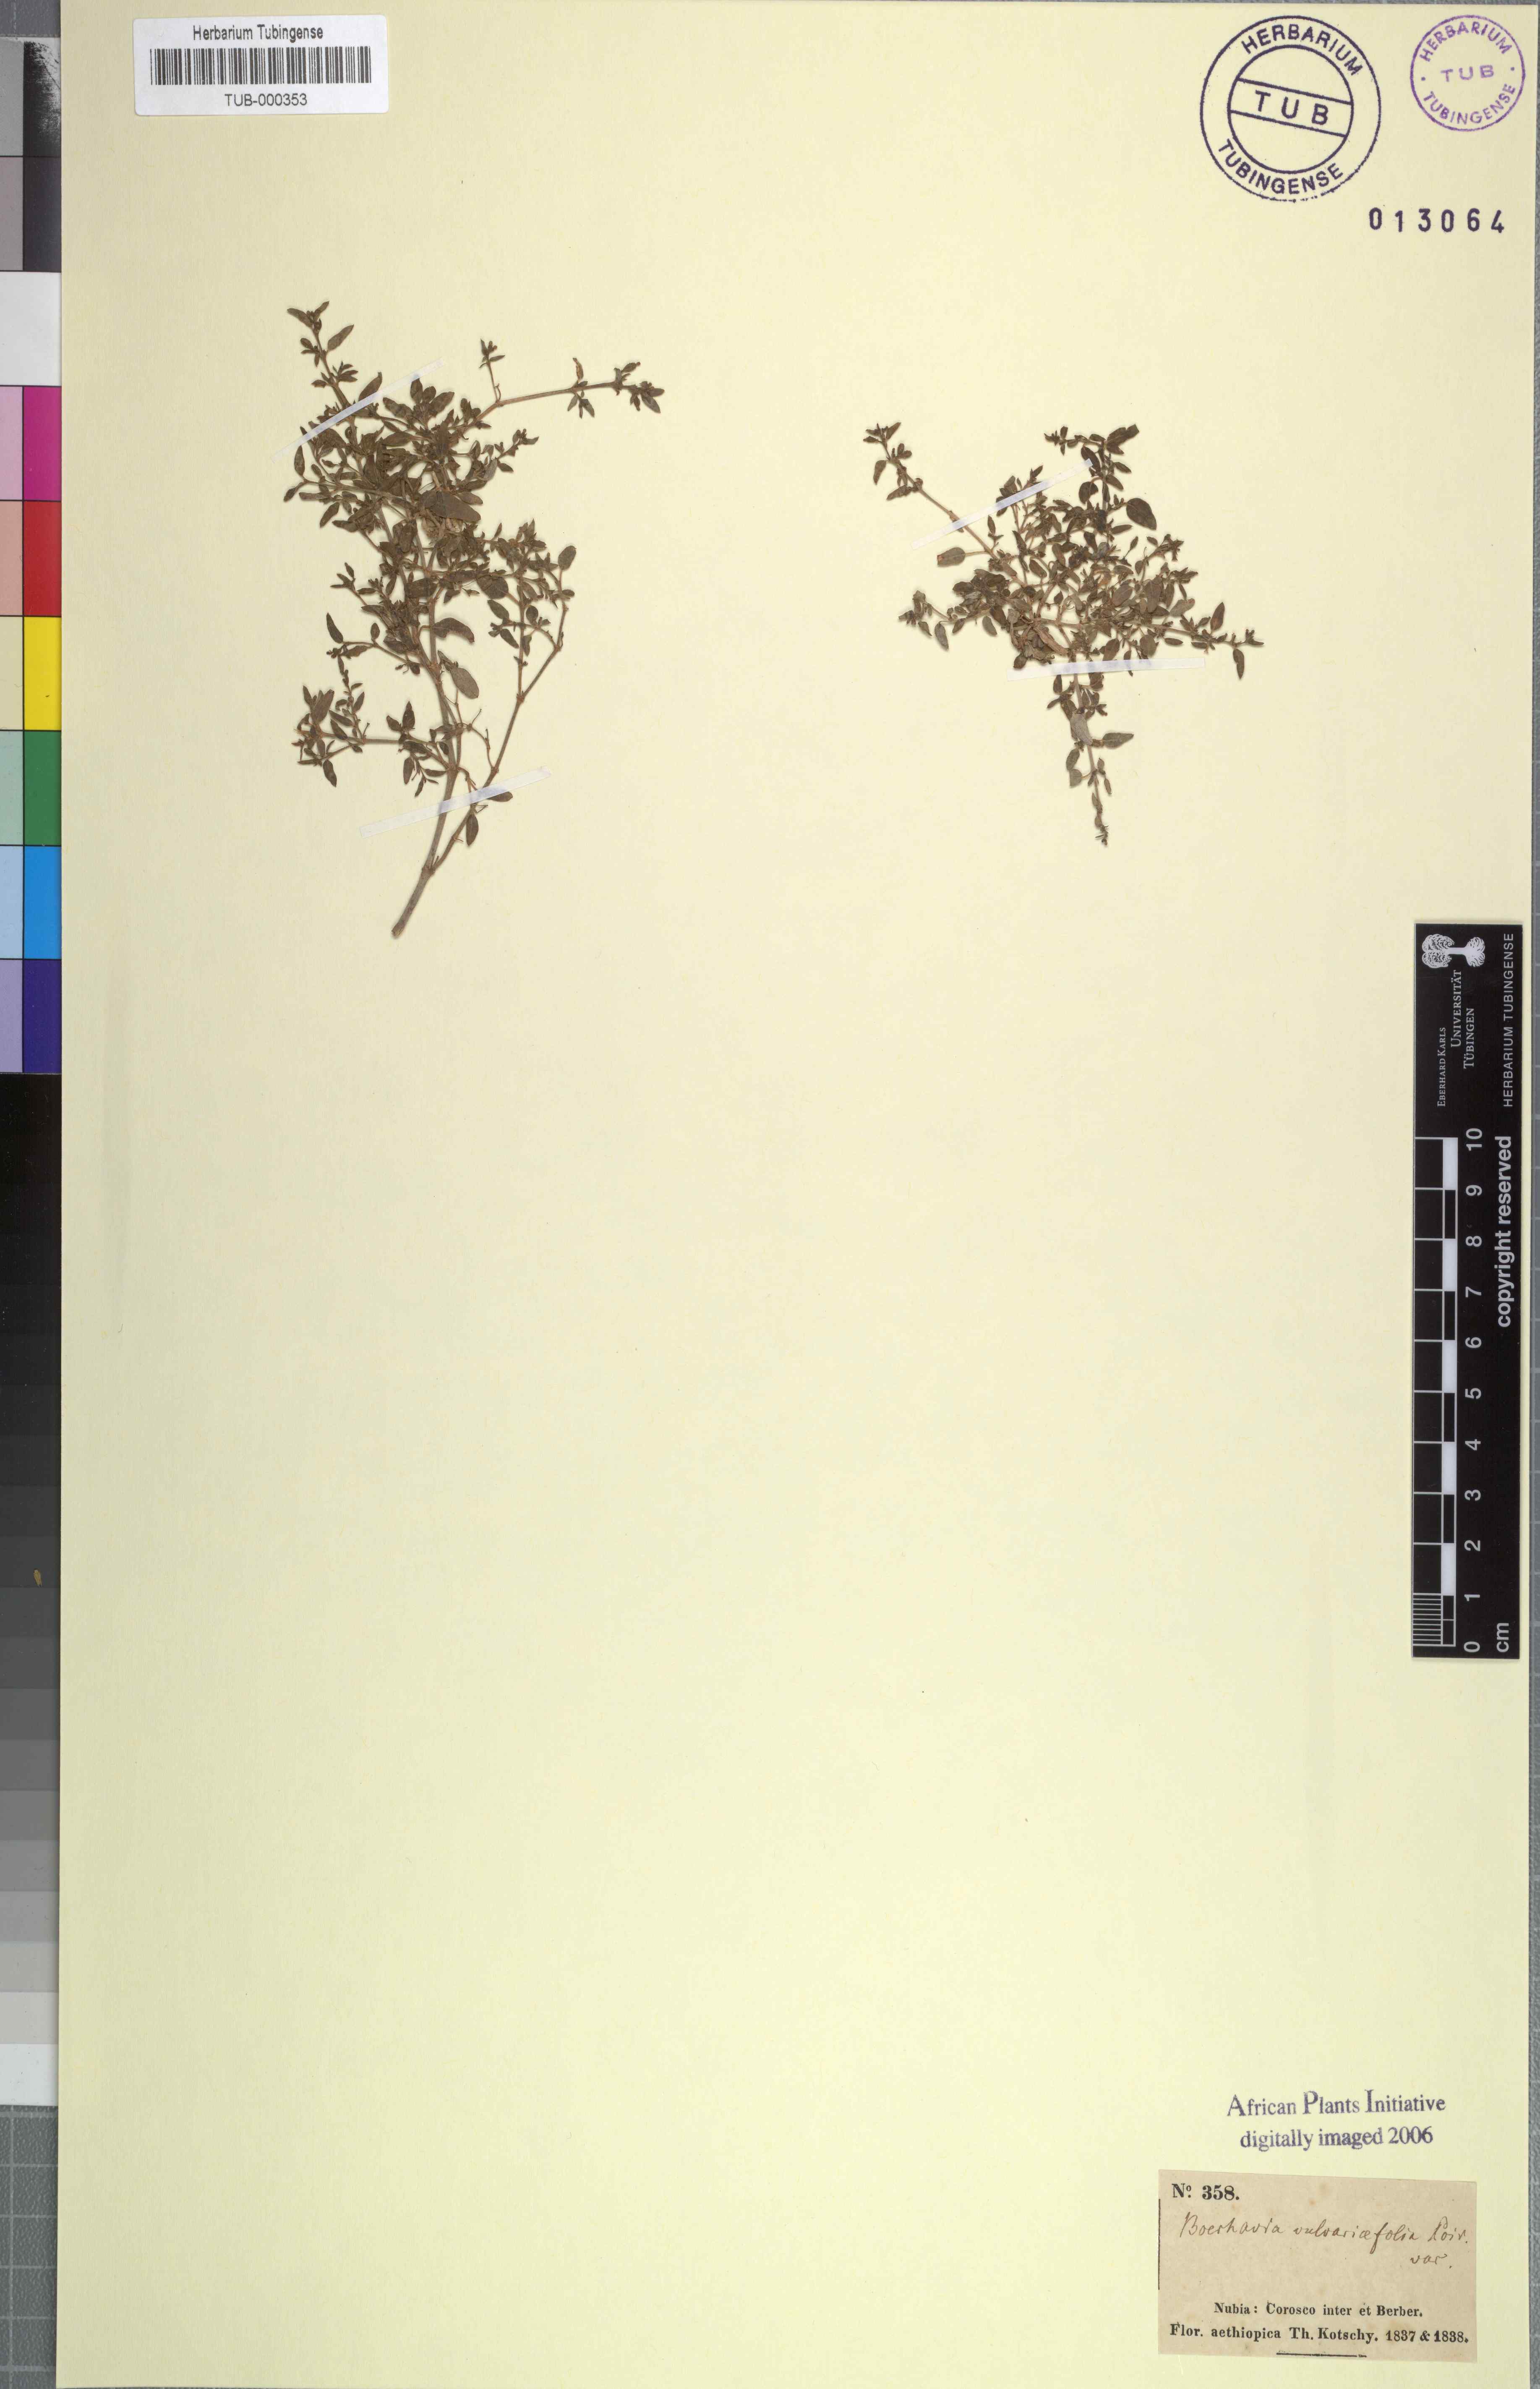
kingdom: Plantae
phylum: Tracheophyta
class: Magnoliopsida
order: Caryophyllales
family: Nyctaginaceae
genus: Boerhavia
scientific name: Boerhavia repens
